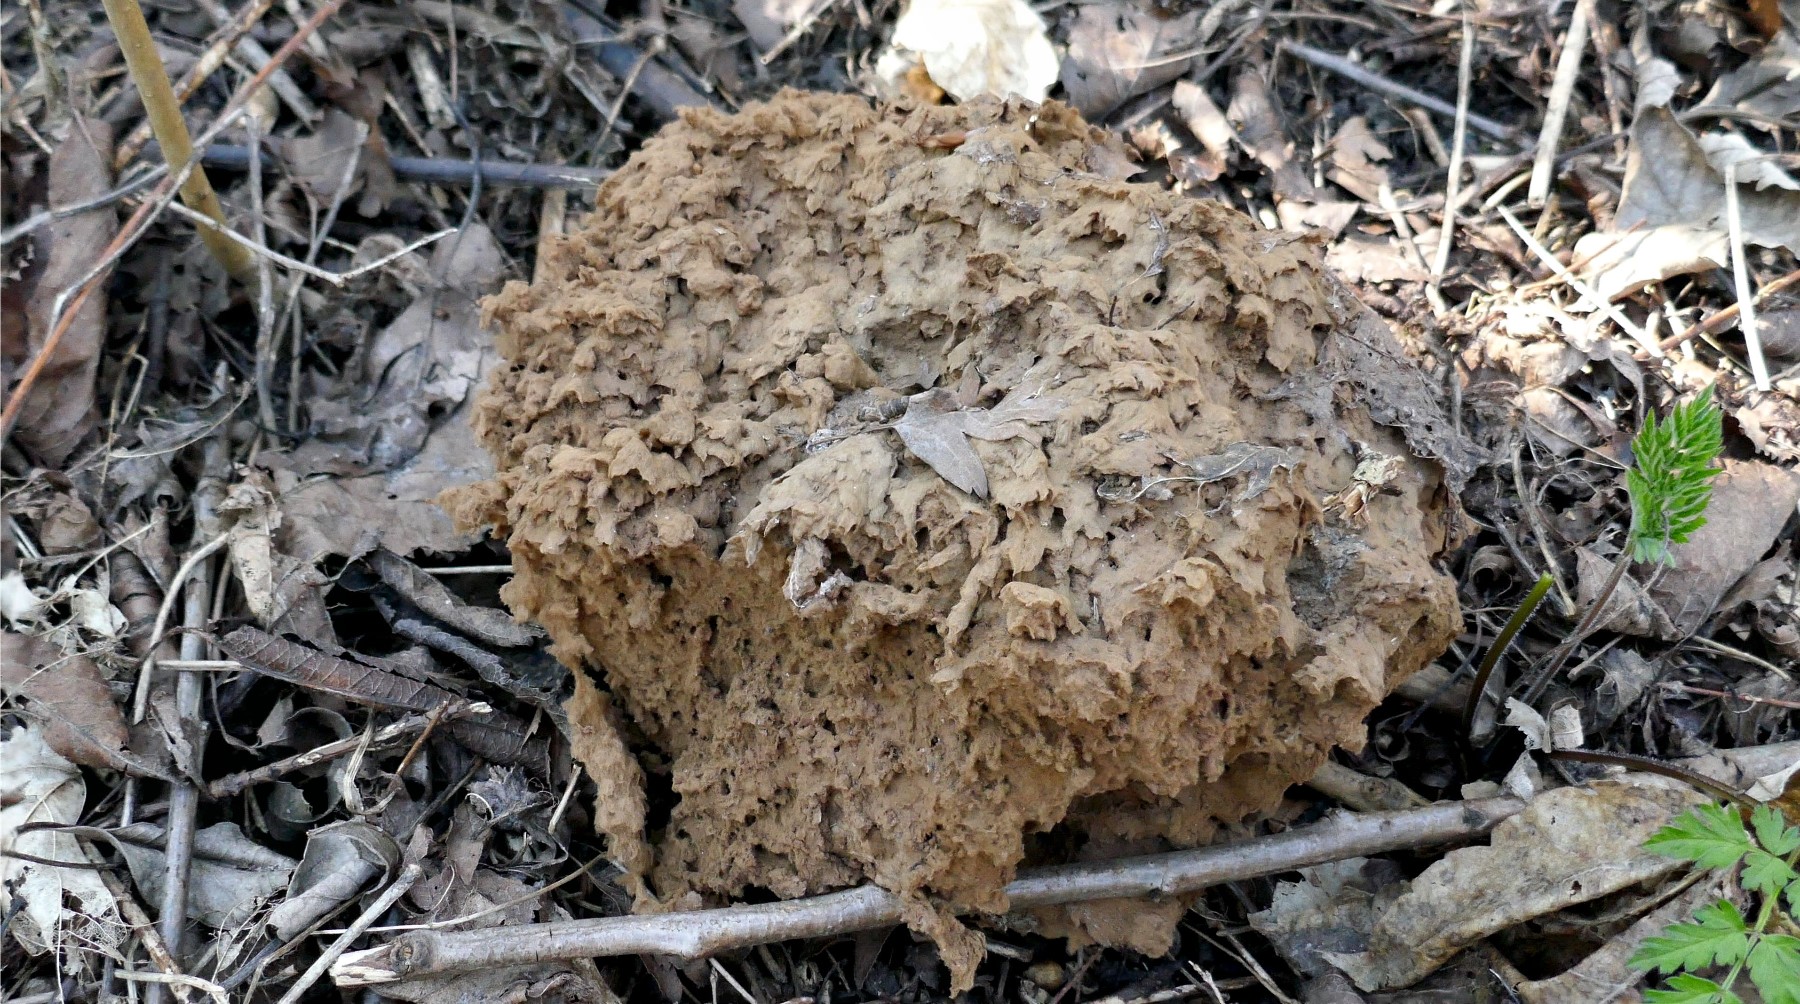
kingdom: Fungi
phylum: Basidiomycota
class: Agaricomycetes
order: Agaricales
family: Lycoperdaceae
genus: Calvatia
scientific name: Calvatia gigantea
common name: kæmpestøvbold
